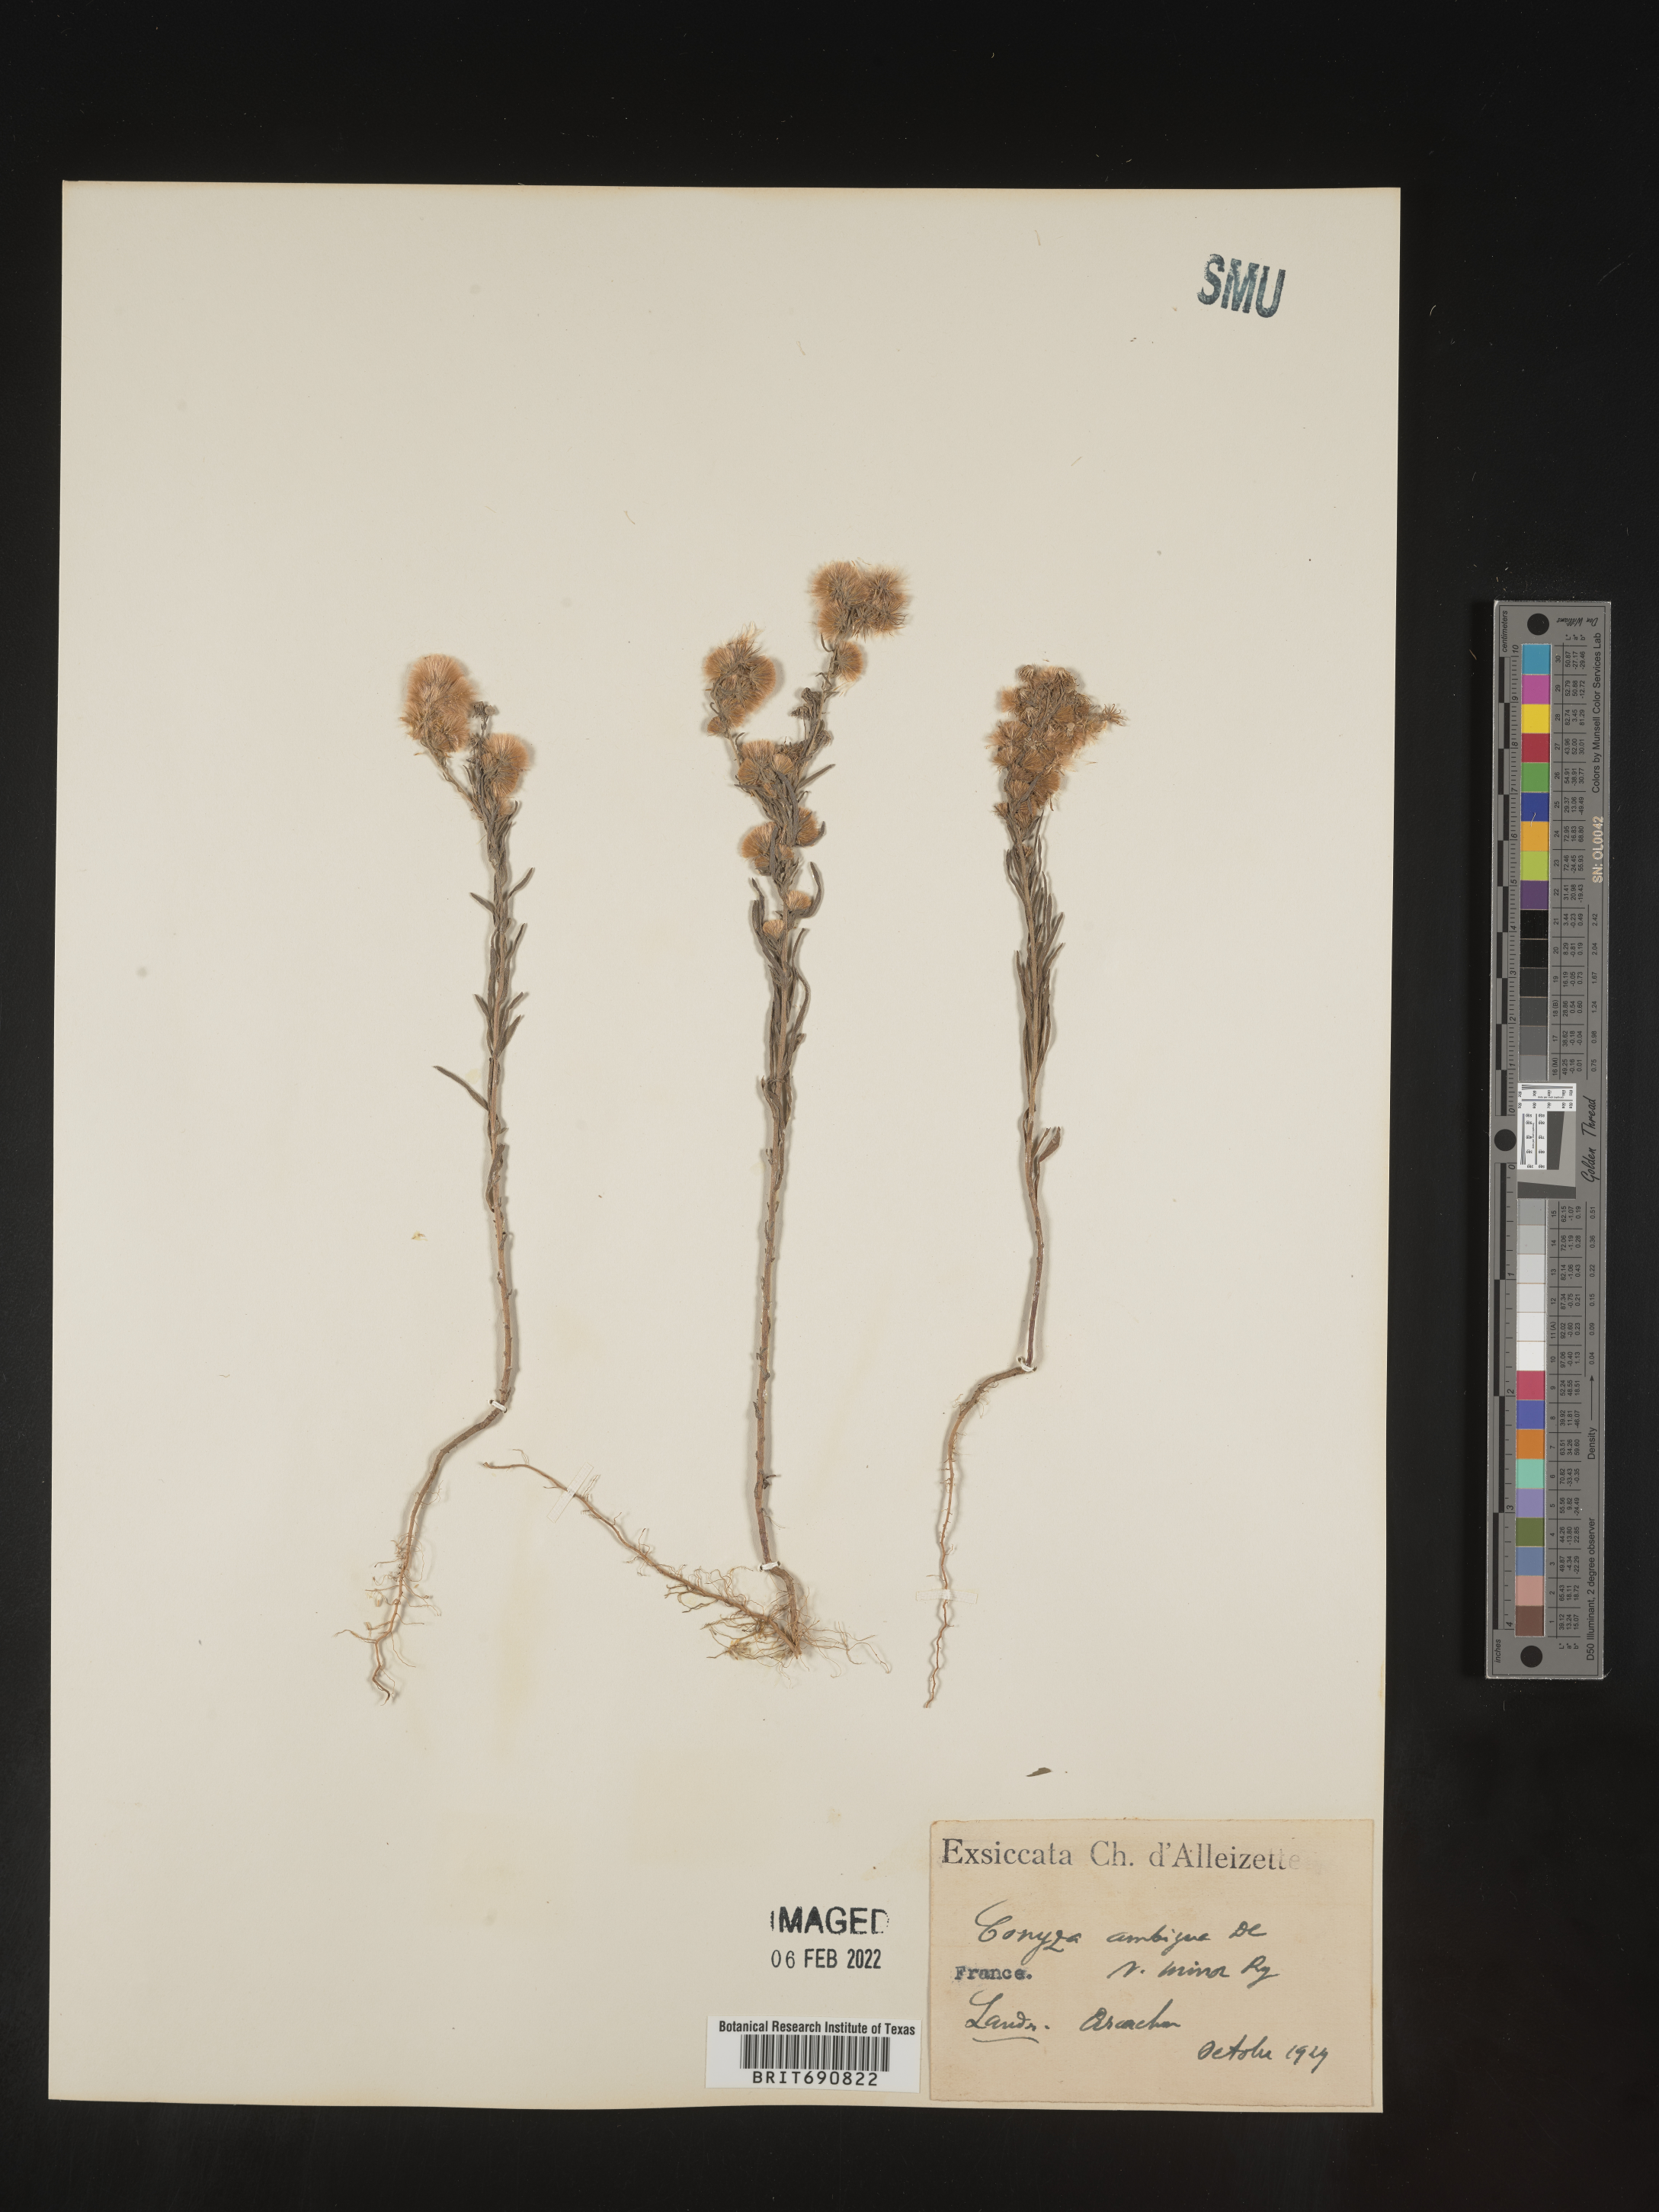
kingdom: Plantae
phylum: Tracheophyta
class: Magnoliopsida
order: Asterales
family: Asteraceae
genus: Conyza
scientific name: Conyza
